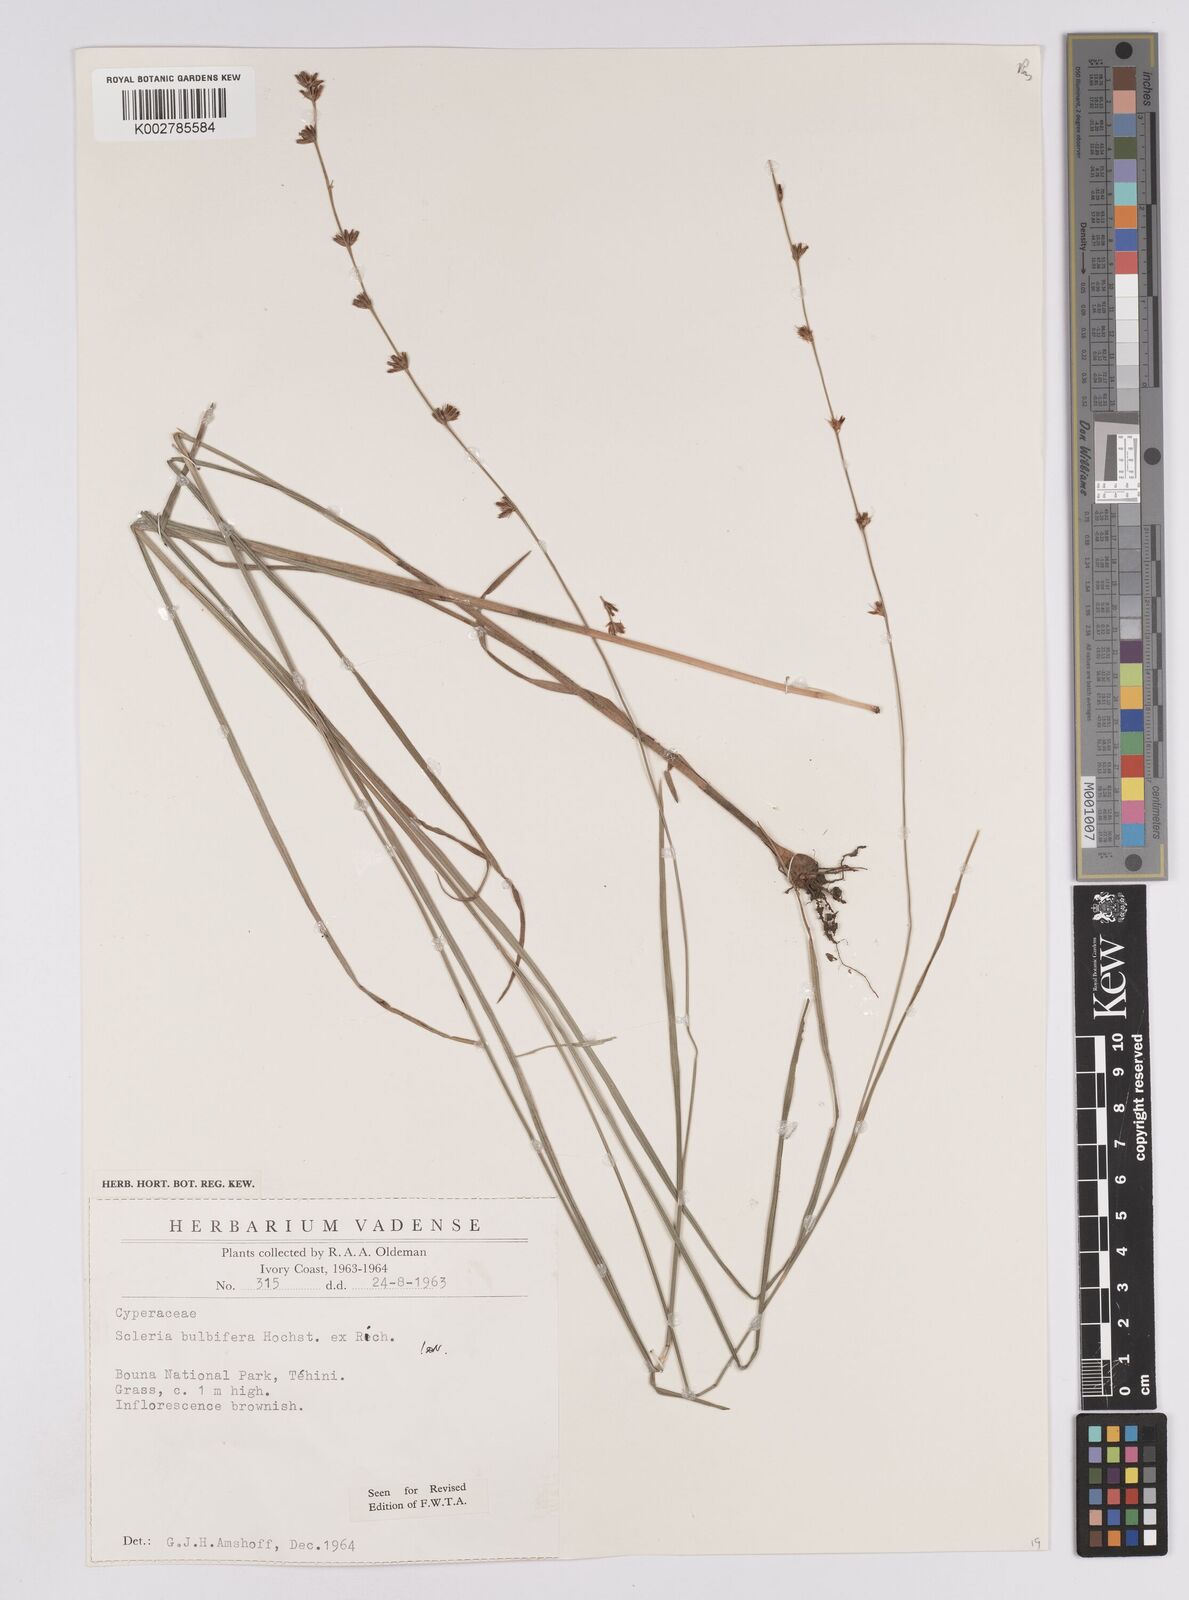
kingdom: Plantae
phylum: Tracheophyta
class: Liliopsida
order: Poales
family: Cyperaceae
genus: Scleria
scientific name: Scleria bulbifera
